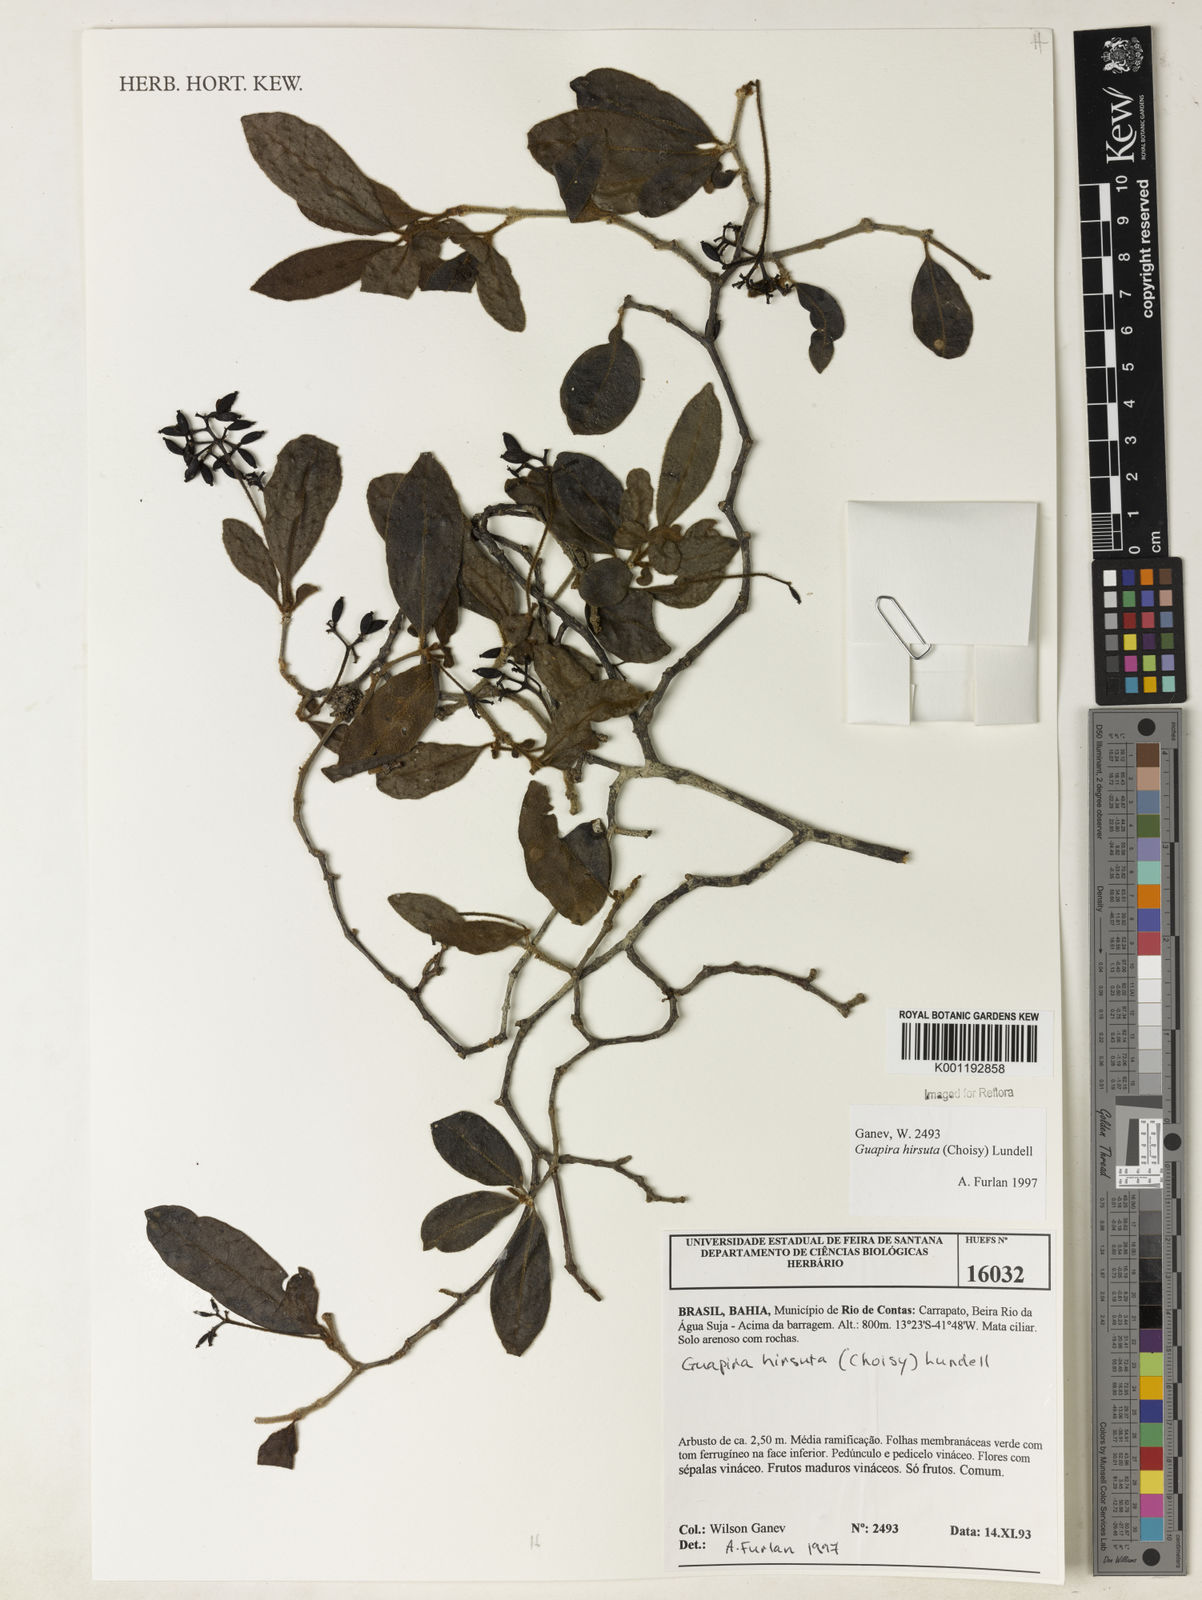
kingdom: Plantae
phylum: Tracheophyta
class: Magnoliopsida
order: Caryophyllales
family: Nyctaginaceae
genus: Guapira
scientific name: Guapira hirsuta
